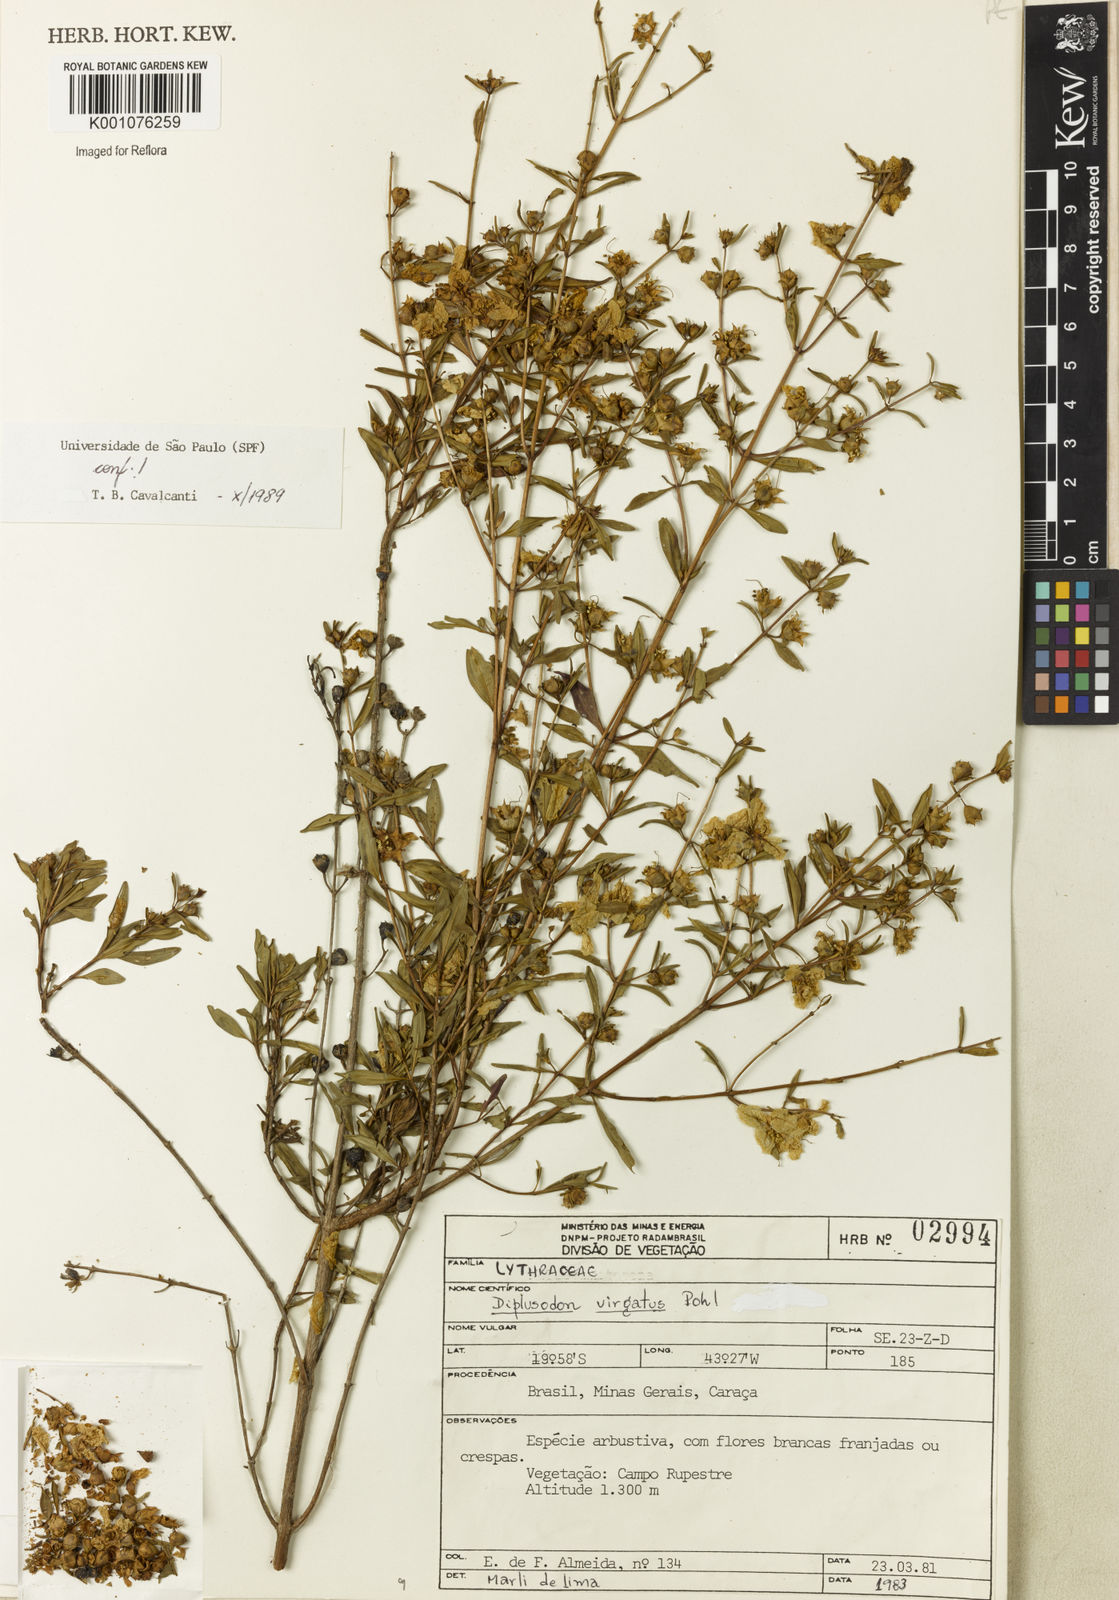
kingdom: Plantae
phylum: Tracheophyta
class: Magnoliopsida
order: Myrtales
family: Lythraceae
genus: Diplusodon
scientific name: Diplusodon virgatus
